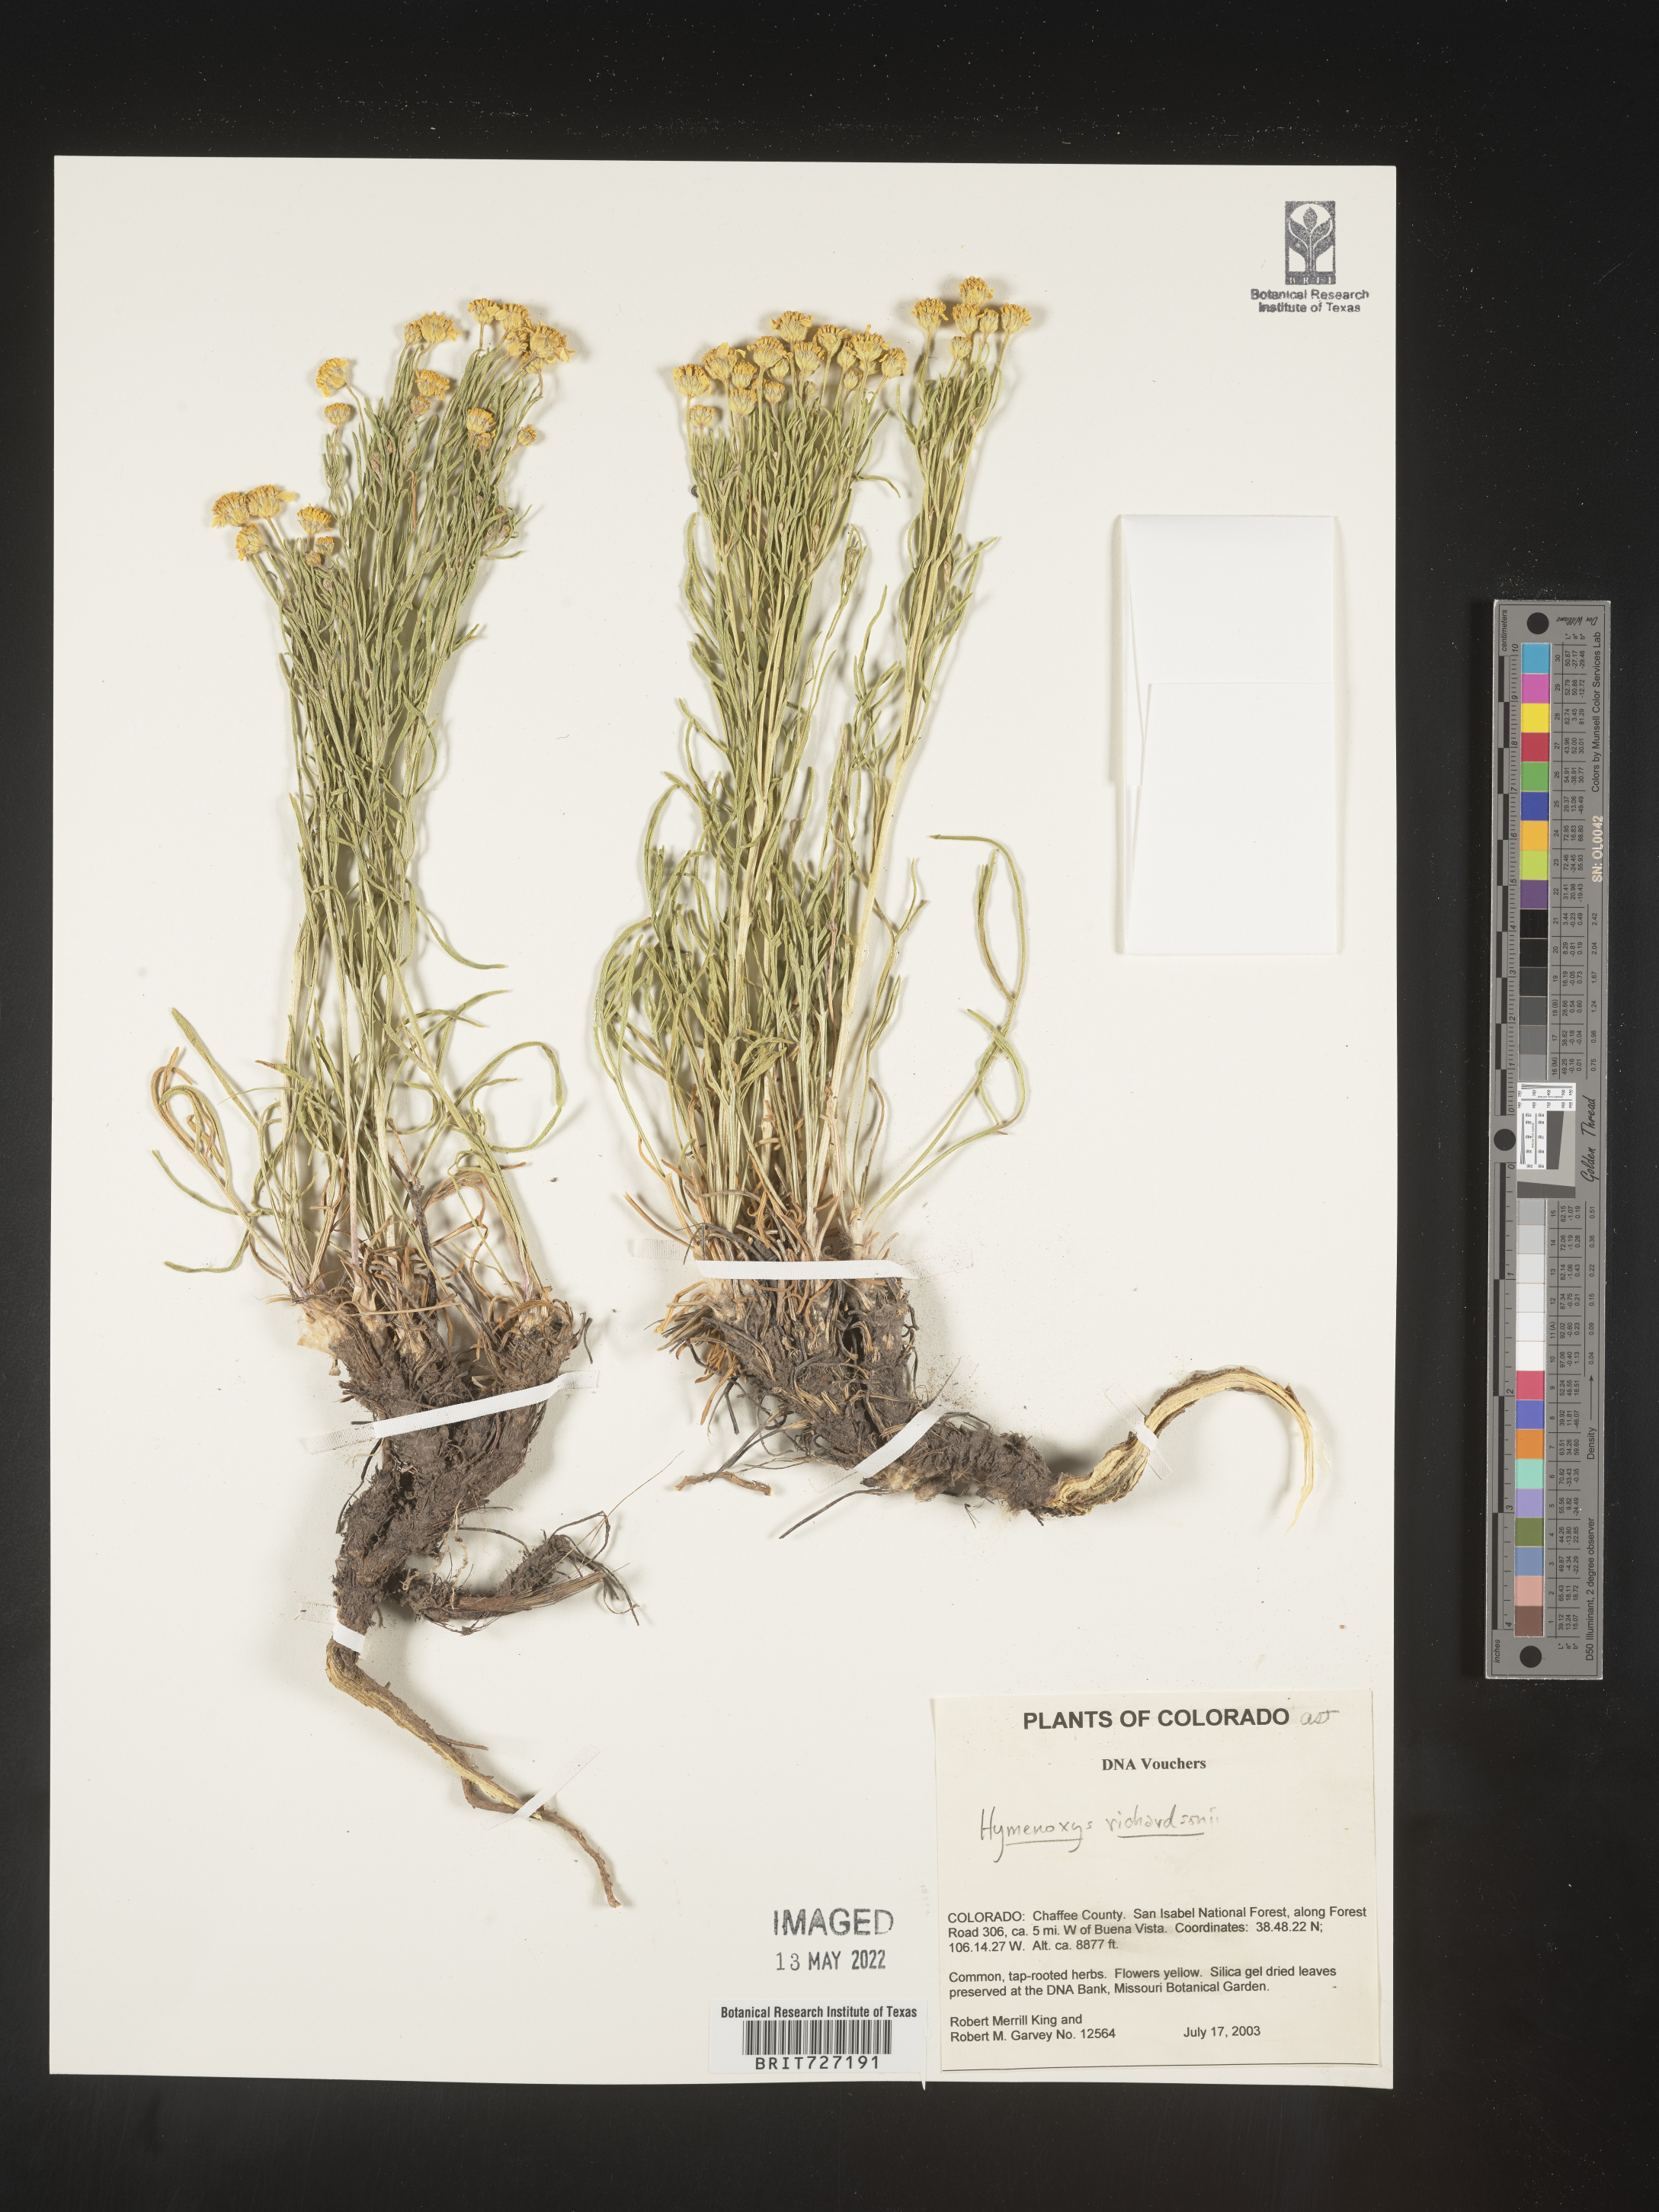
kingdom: Plantae
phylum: Tracheophyta
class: Magnoliopsida
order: Asterales
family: Asteraceae
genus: Hymenoxys
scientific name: Hymenoxys richardsonii
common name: Pingue rubberweed
